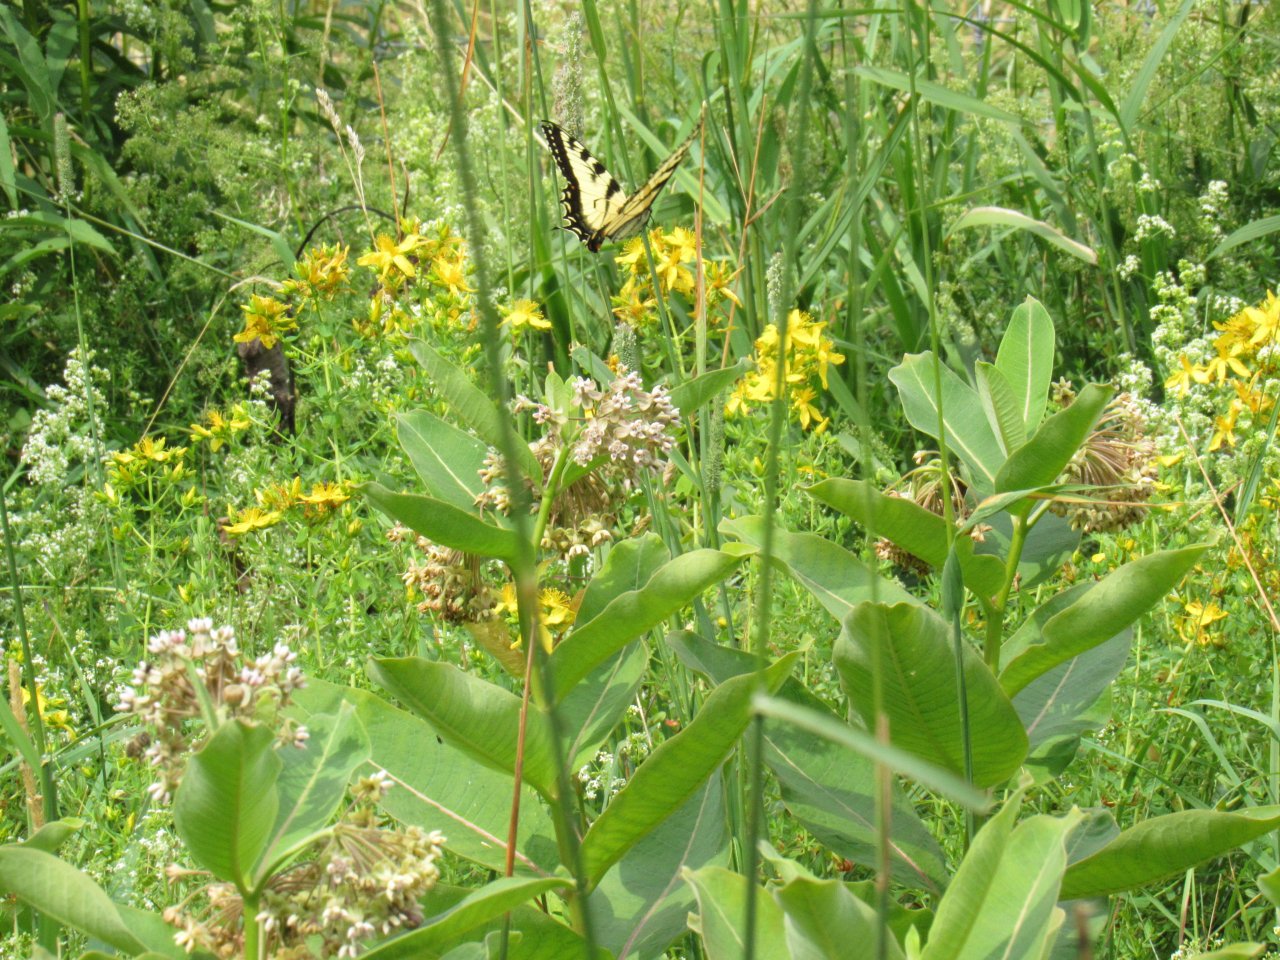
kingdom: Animalia
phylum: Arthropoda
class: Insecta
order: Lepidoptera
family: Papilionidae
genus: Pterourus
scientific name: Pterourus
